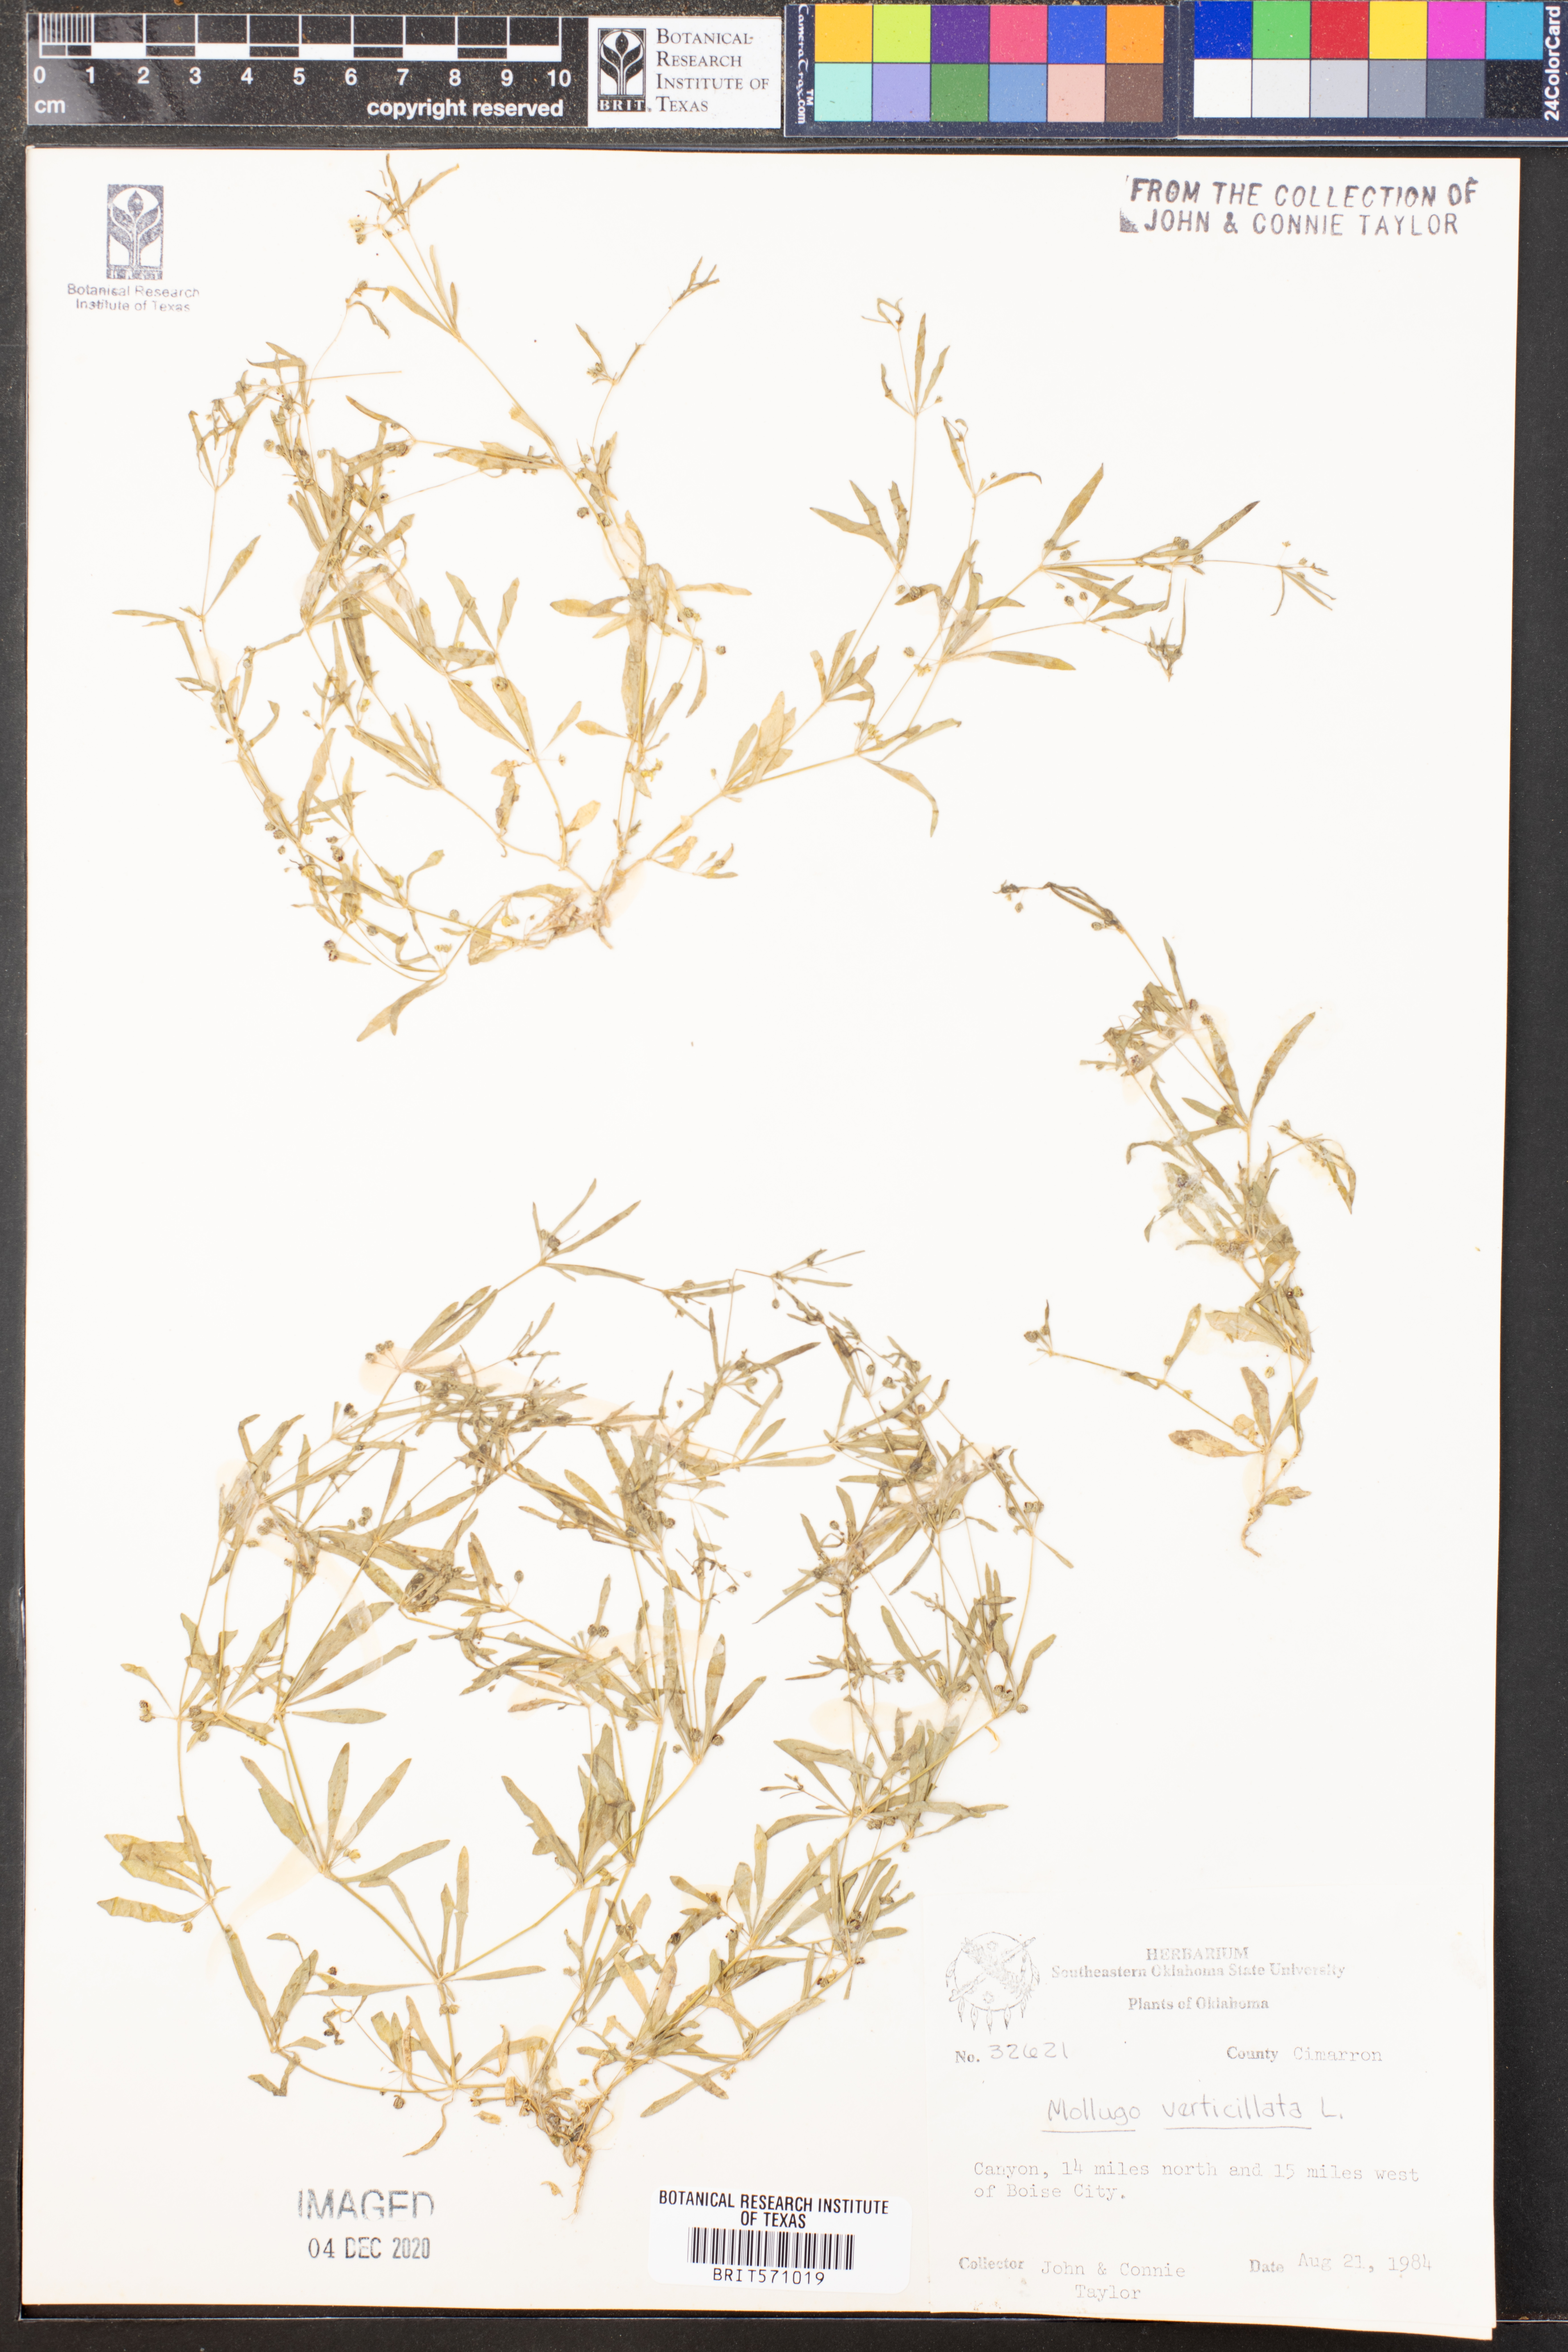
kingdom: Plantae
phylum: Tracheophyta
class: Magnoliopsida
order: Caryophyllales
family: Molluginaceae
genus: Mollugo
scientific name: Mollugo verticillata
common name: Green carpetweed
